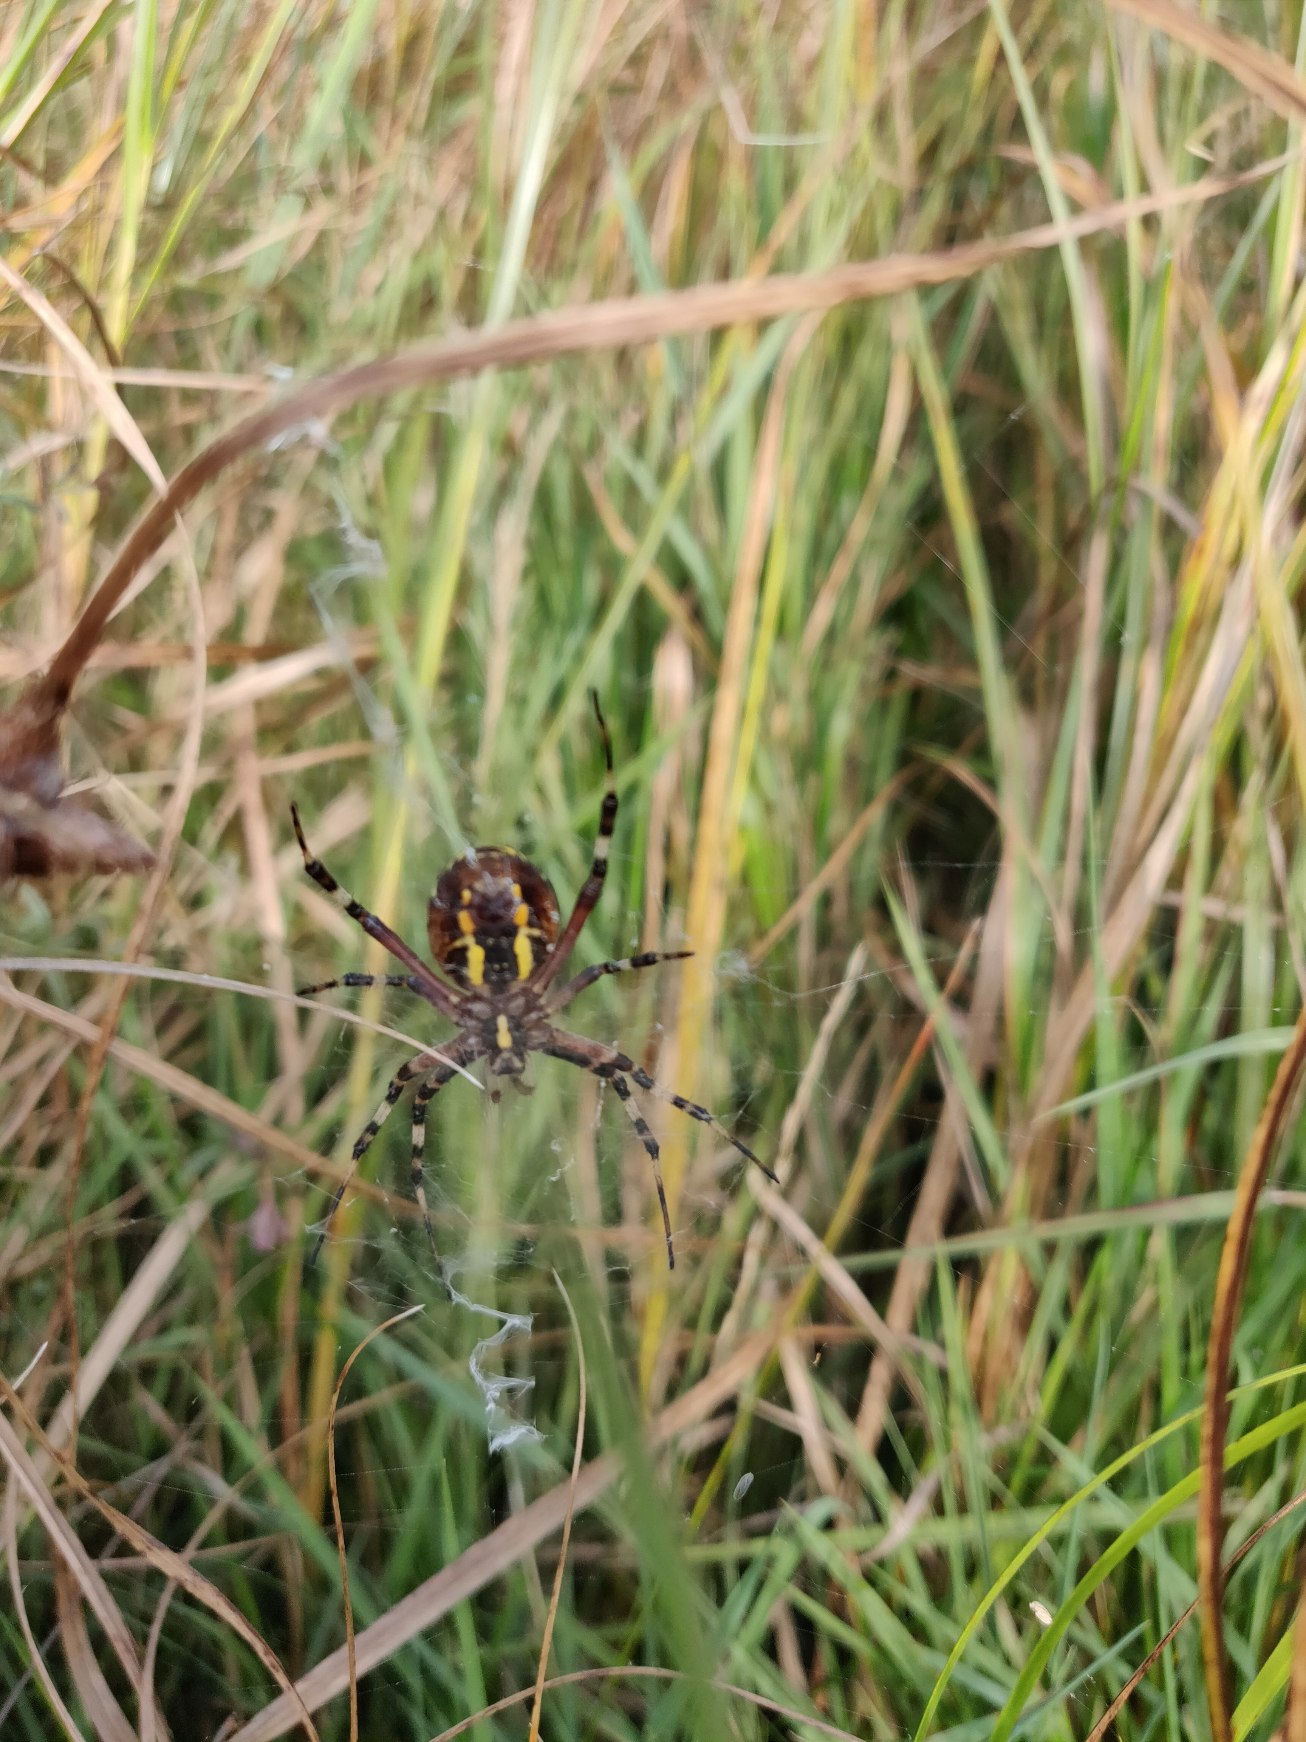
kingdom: Animalia
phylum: Arthropoda
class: Arachnida
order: Araneae
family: Araneidae
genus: Argiope
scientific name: Argiope bruennichi
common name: Hvepseedderkop
